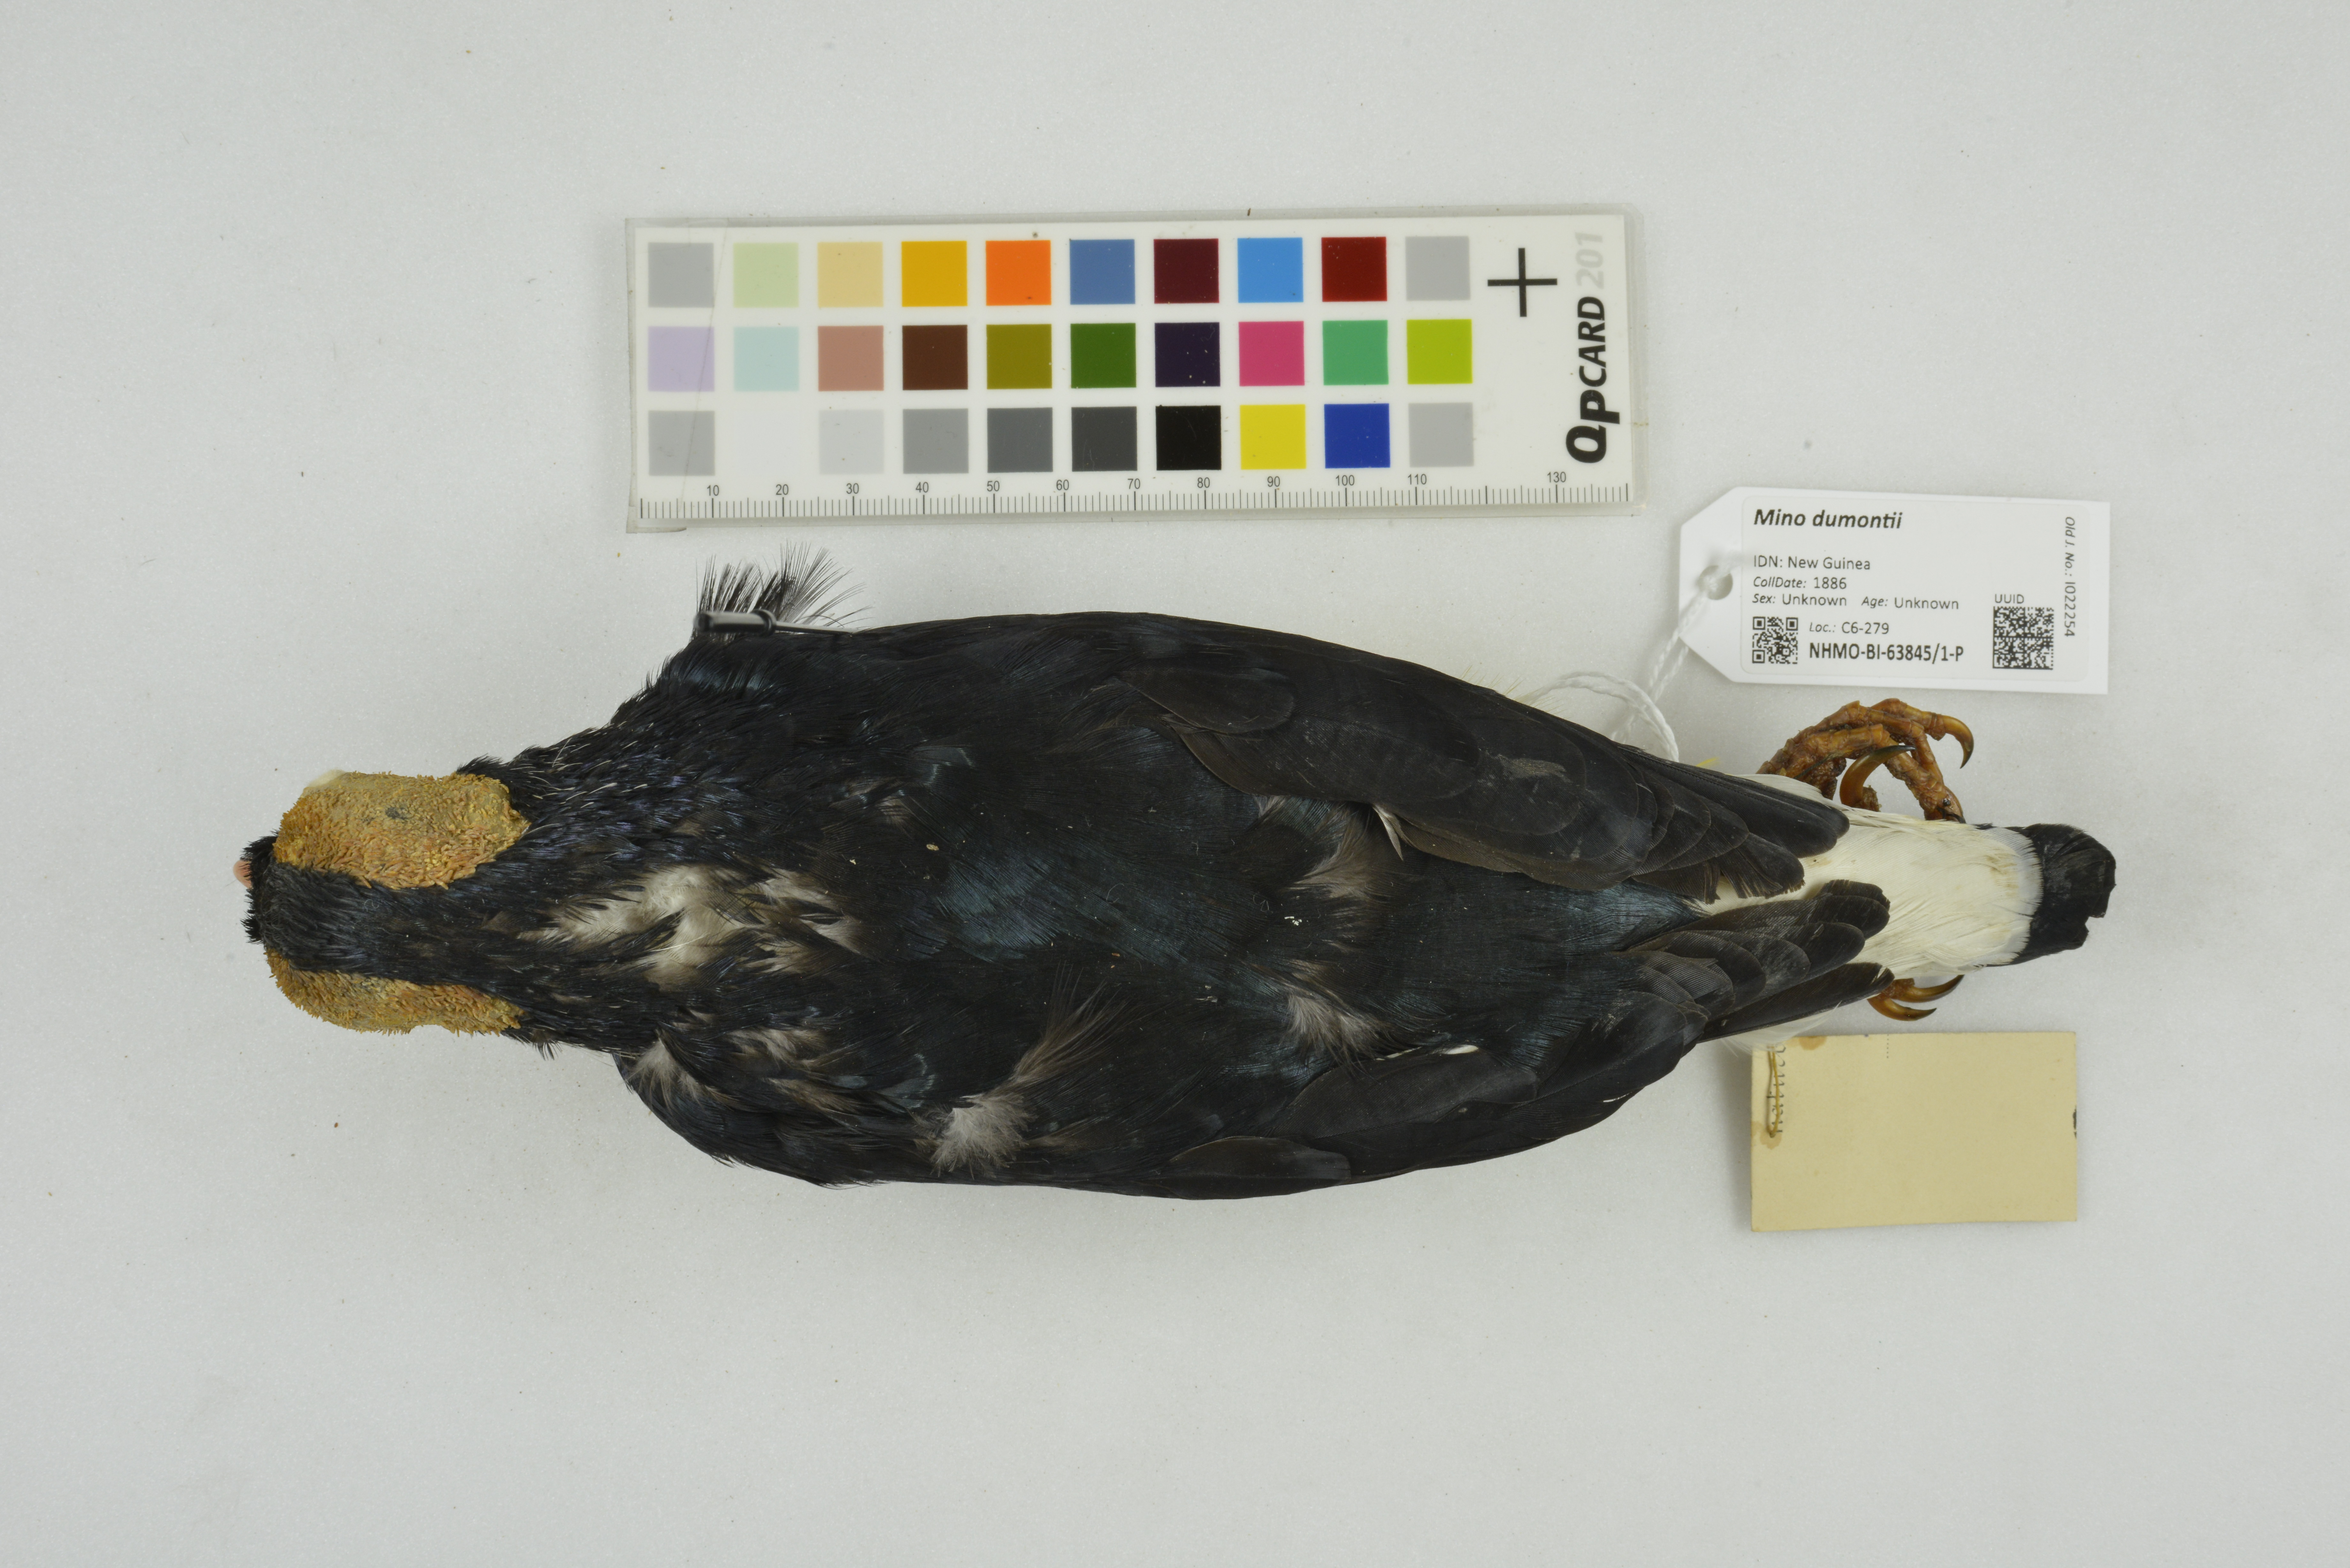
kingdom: Animalia
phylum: Chordata
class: Aves
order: Passeriformes
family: Sturnidae
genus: Mino
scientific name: Mino dumontii
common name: Yellow-faced myna
